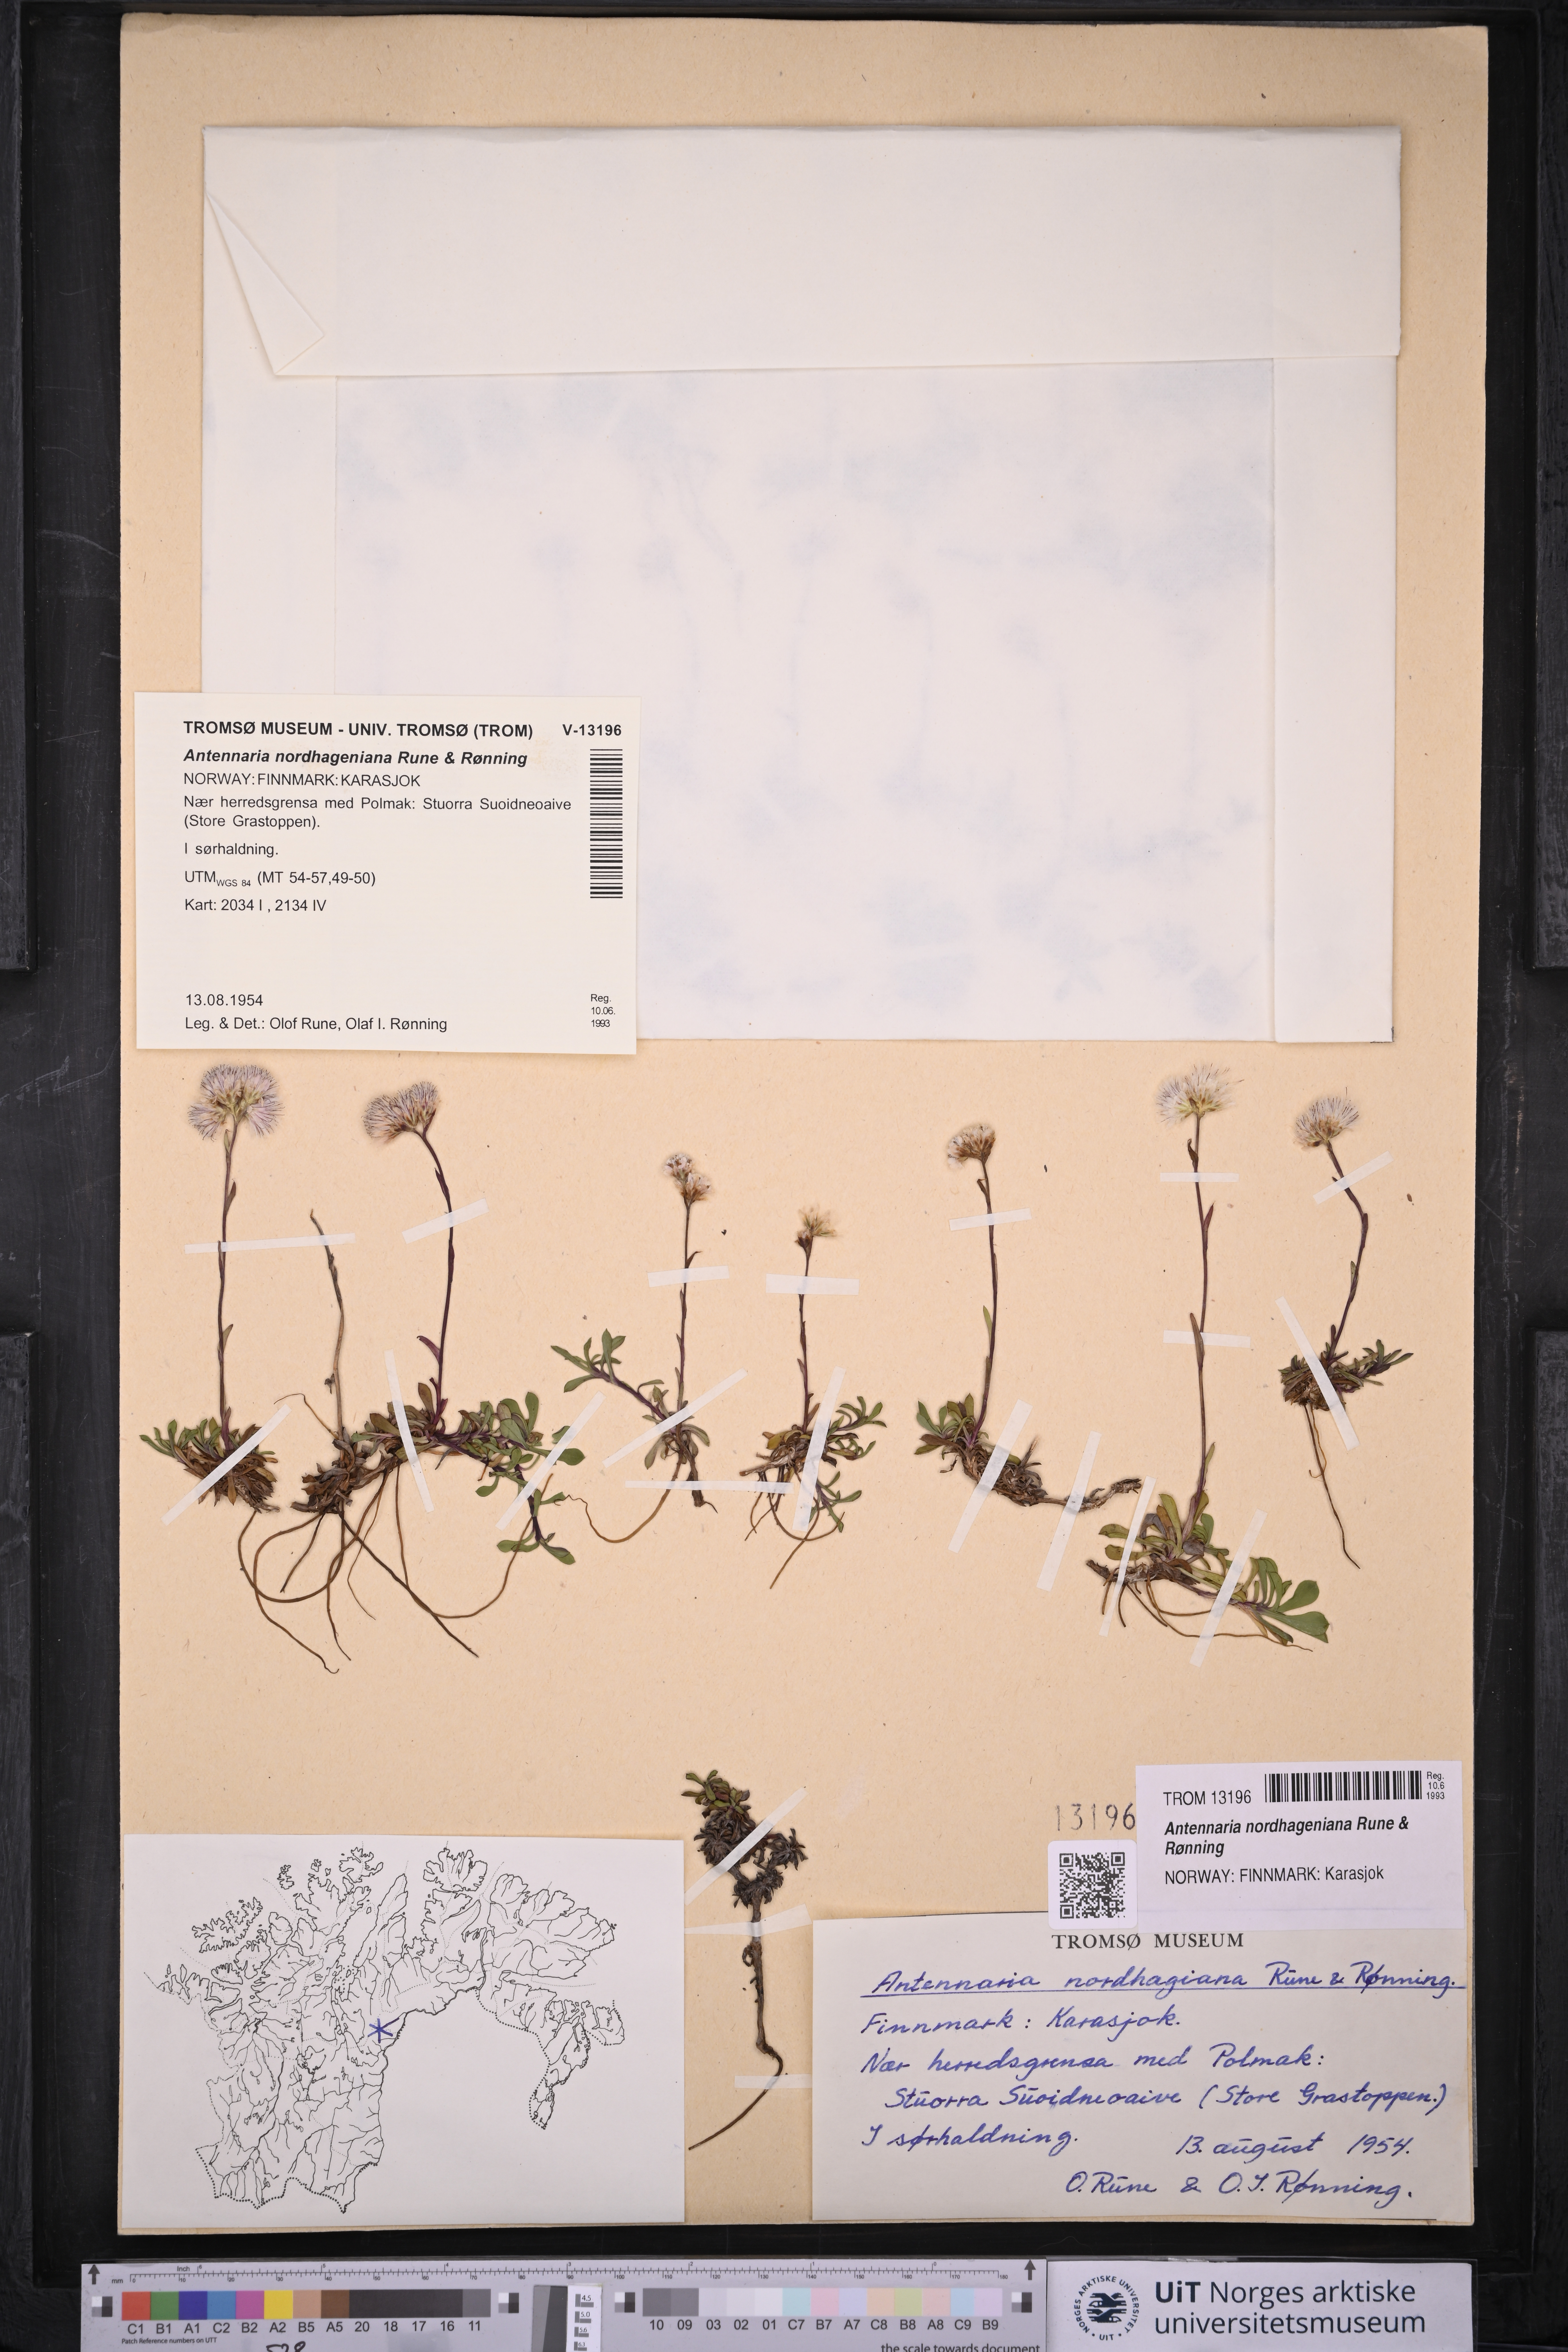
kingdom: Plantae
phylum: Tracheophyta
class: Magnoliopsida
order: Asterales
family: Asteraceae
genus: Antennaria
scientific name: Antennaria nordhageniana
